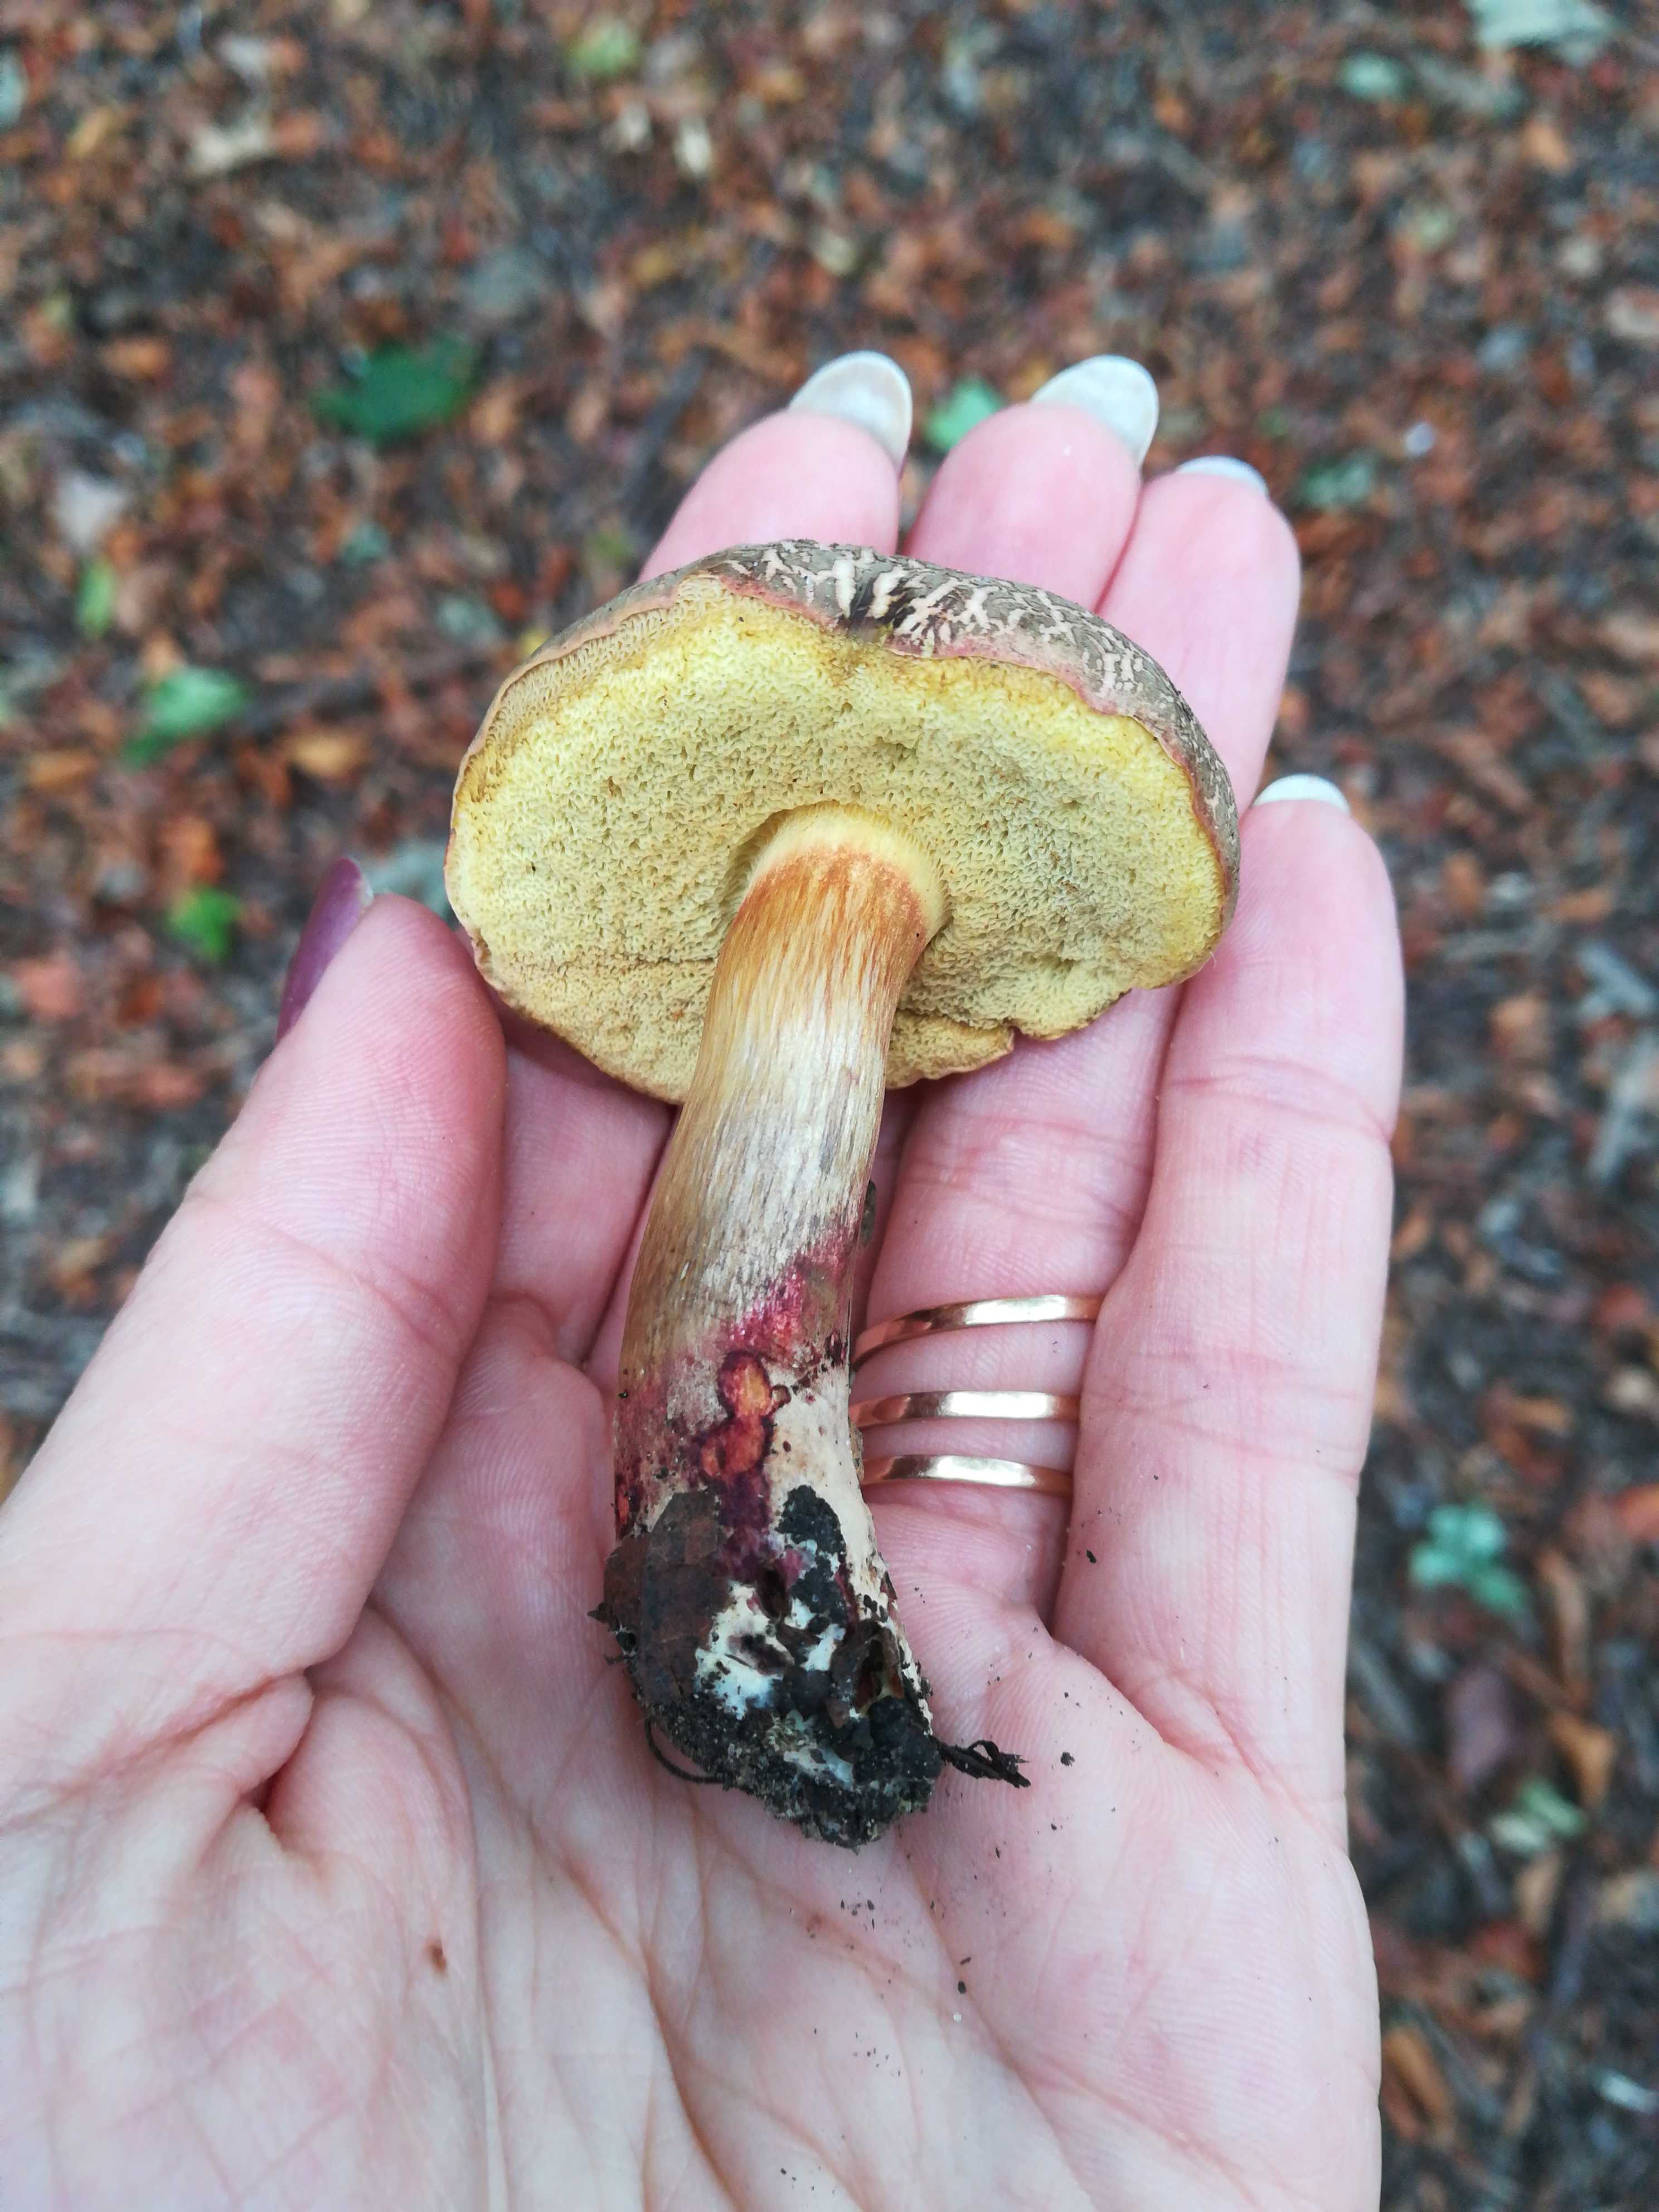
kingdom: Fungi
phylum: Basidiomycota
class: Agaricomycetes
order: Boletales
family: Boletaceae
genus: Xerocomellus
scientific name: Xerocomellus
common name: dværgrørhat
